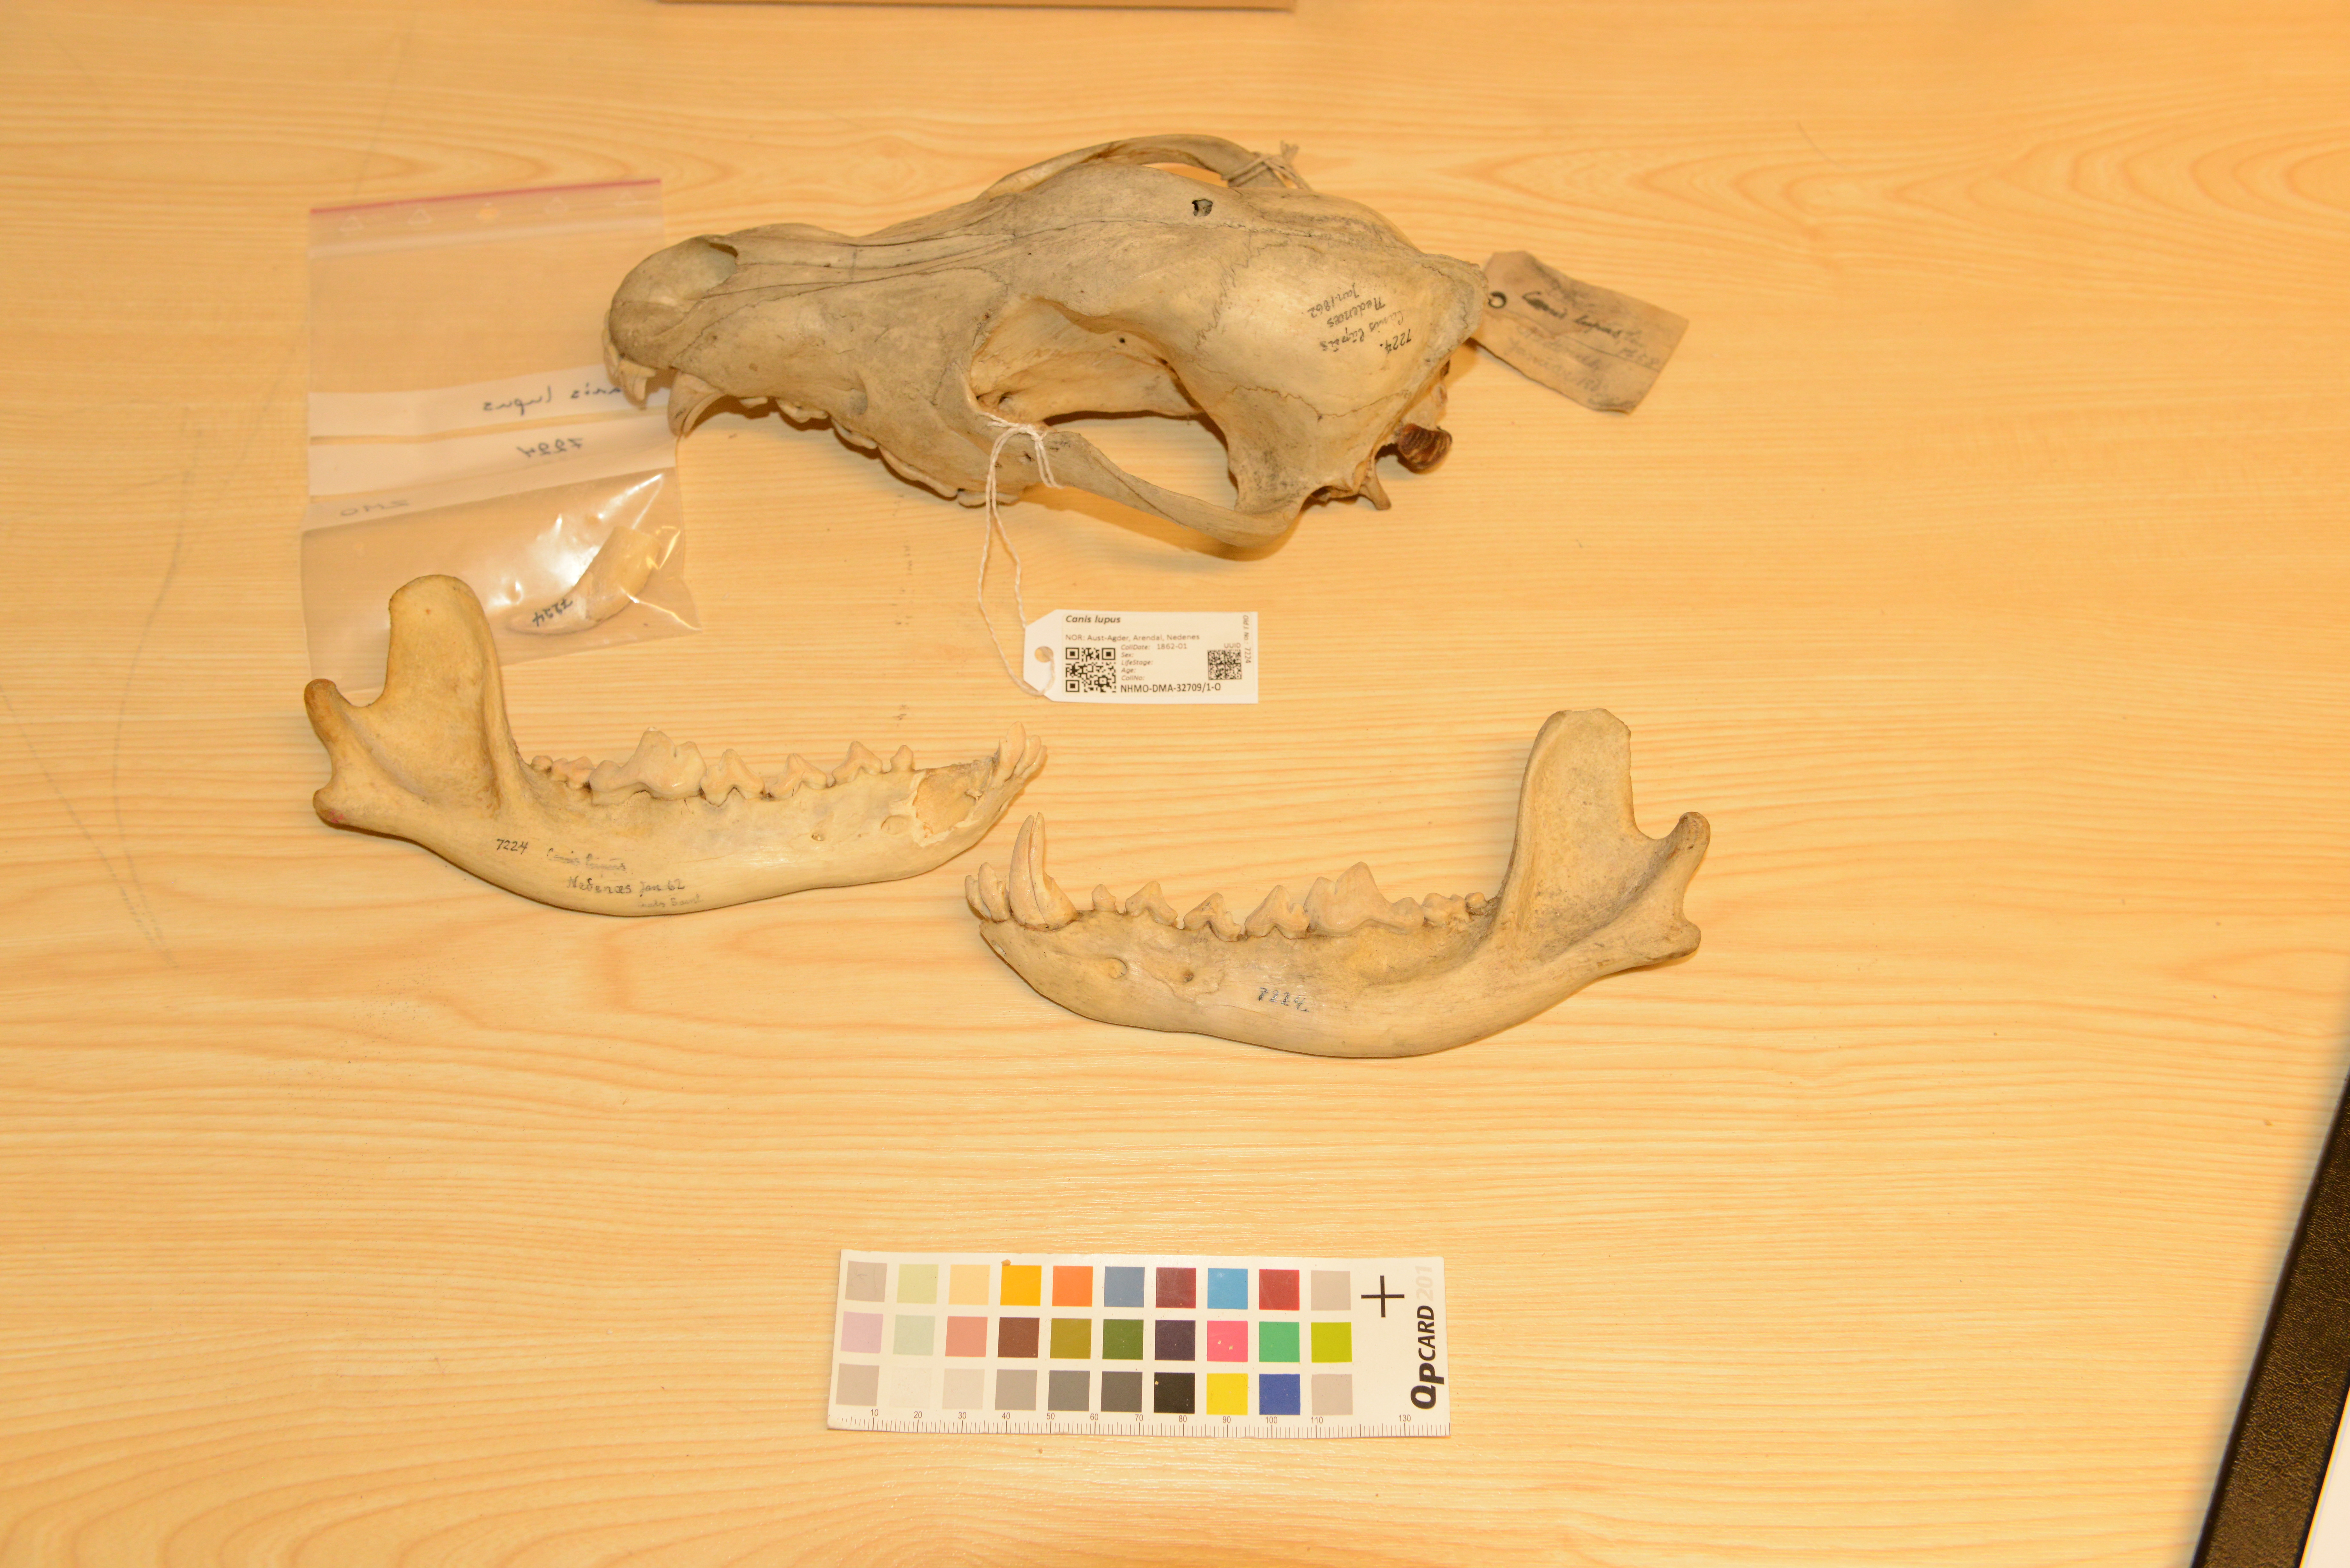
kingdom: Animalia
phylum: Chordata
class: Mammalia
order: Carnivora
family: Canidae
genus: Canis
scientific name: Canis lupus
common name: Gray wolf
